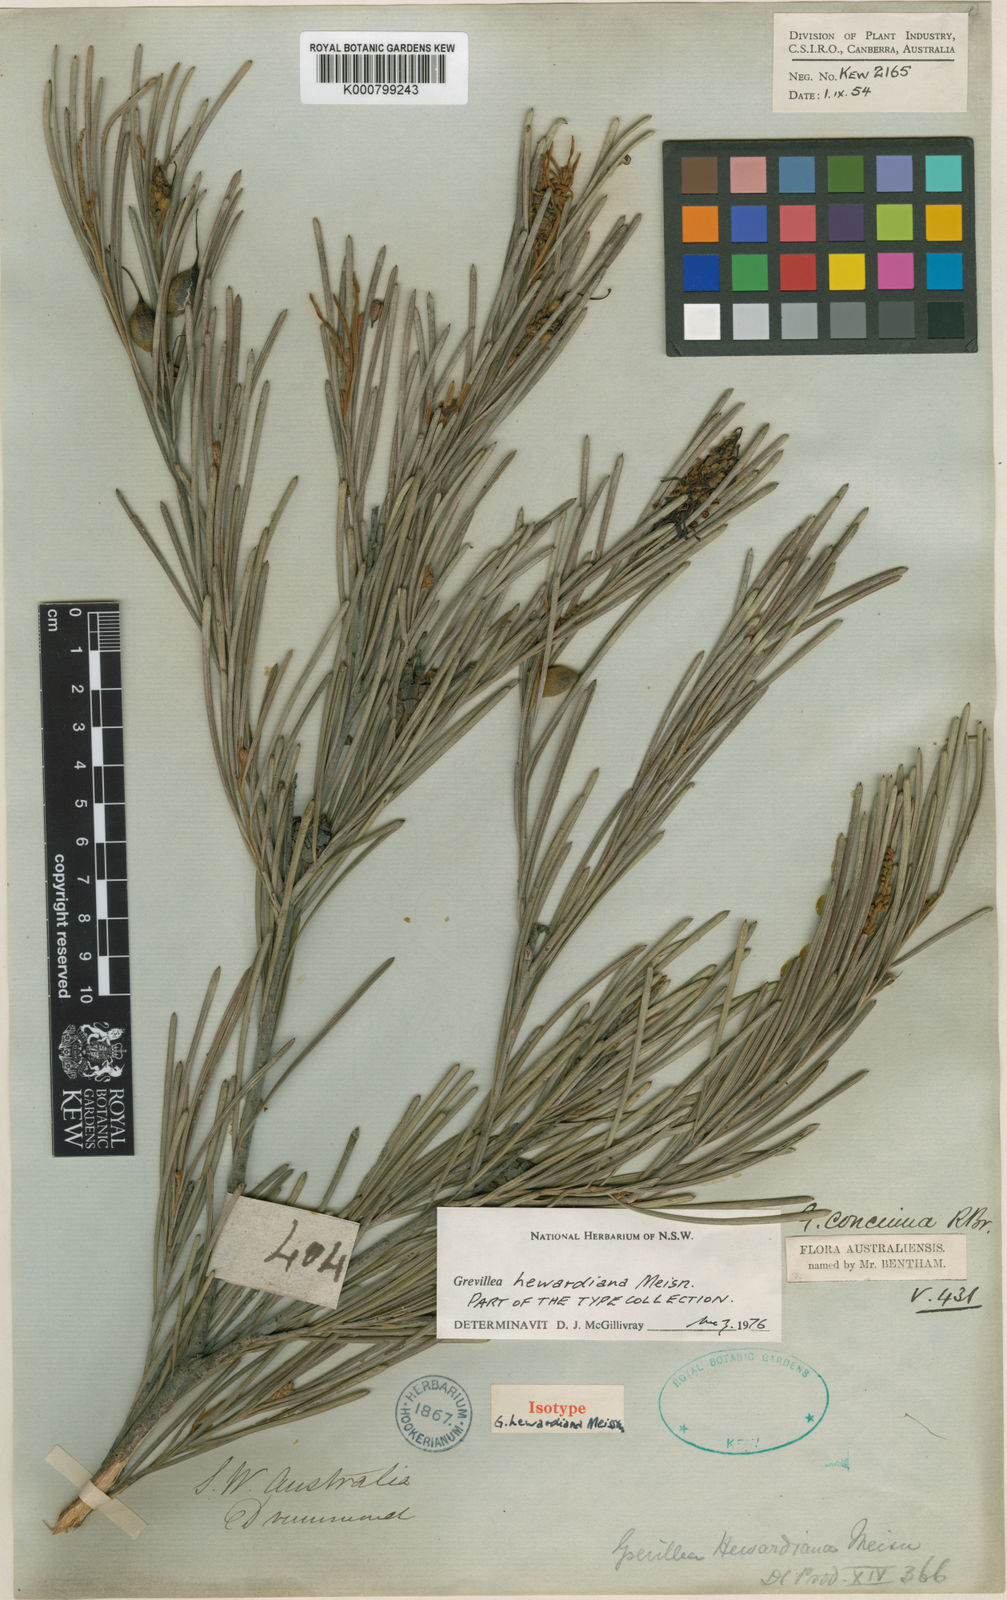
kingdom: Plantae
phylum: Tracheophyta
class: Magnoliopsida
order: Proteales
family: Proteaceae
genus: Grevillea
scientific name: Grevillea concinna
